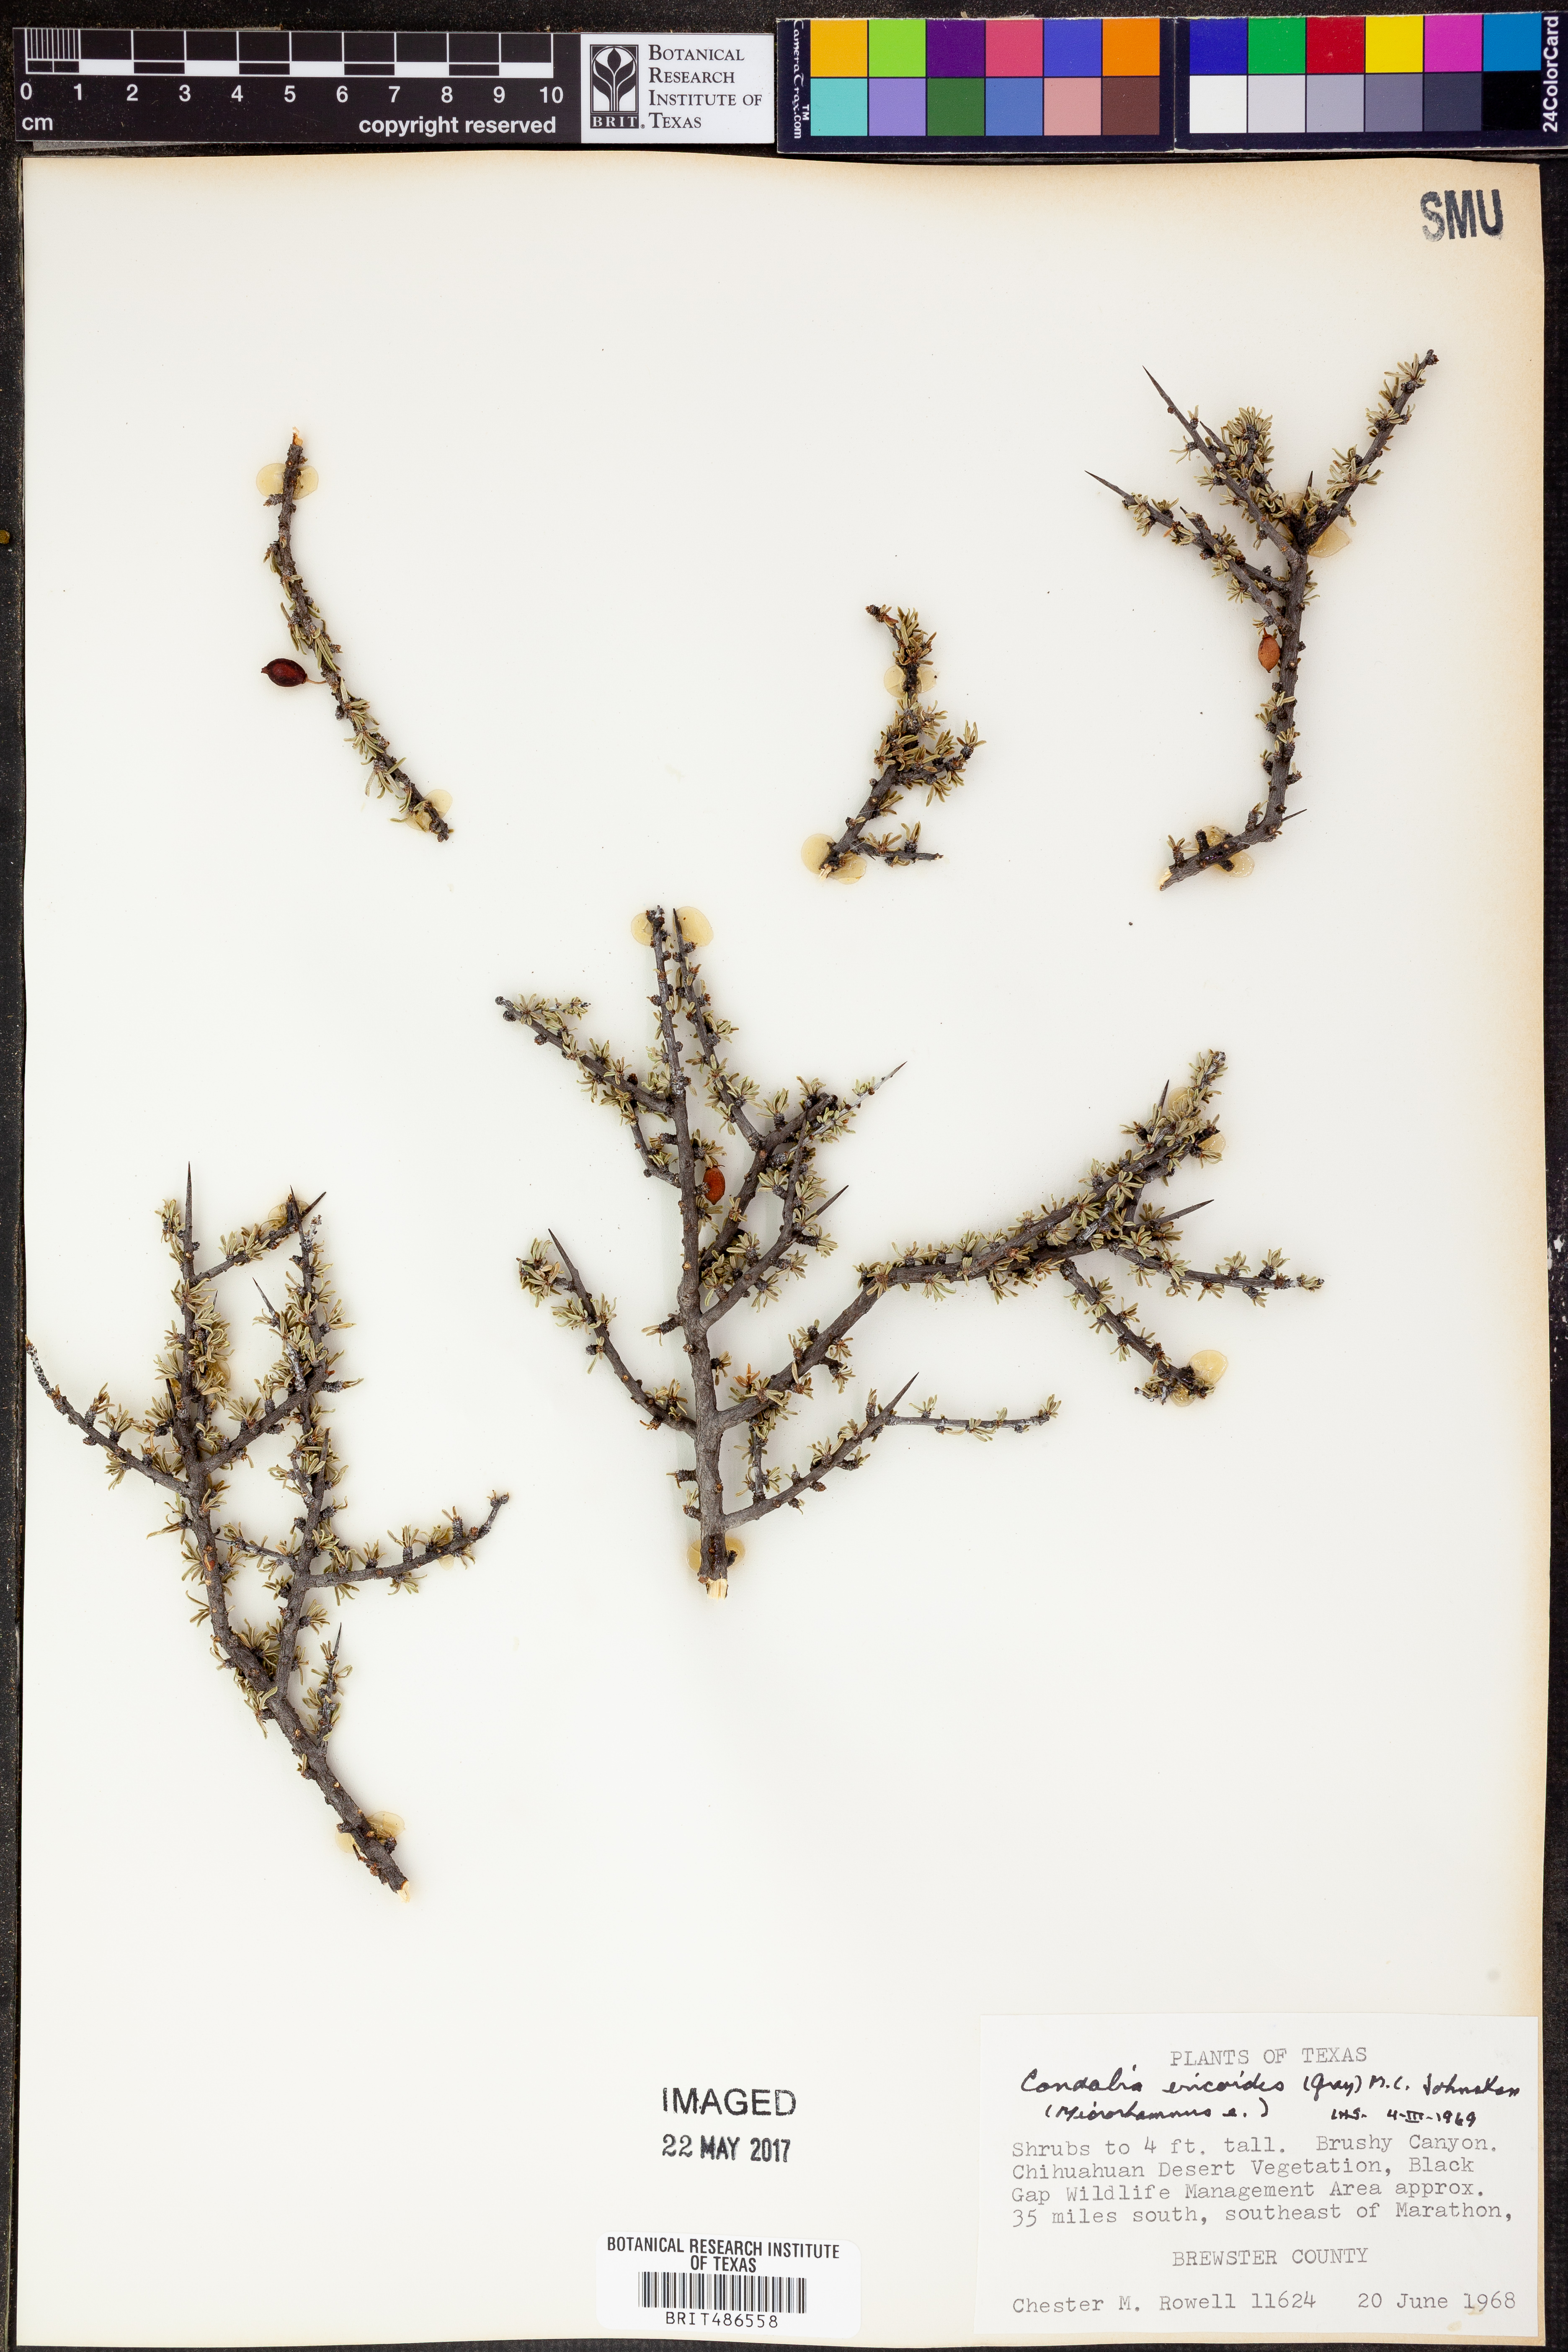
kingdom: Plantae
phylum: Tracheophyta
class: Magnoliopsida
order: Rosales
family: Rhamnaceae
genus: Condalia
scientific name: Condalia ericoides
